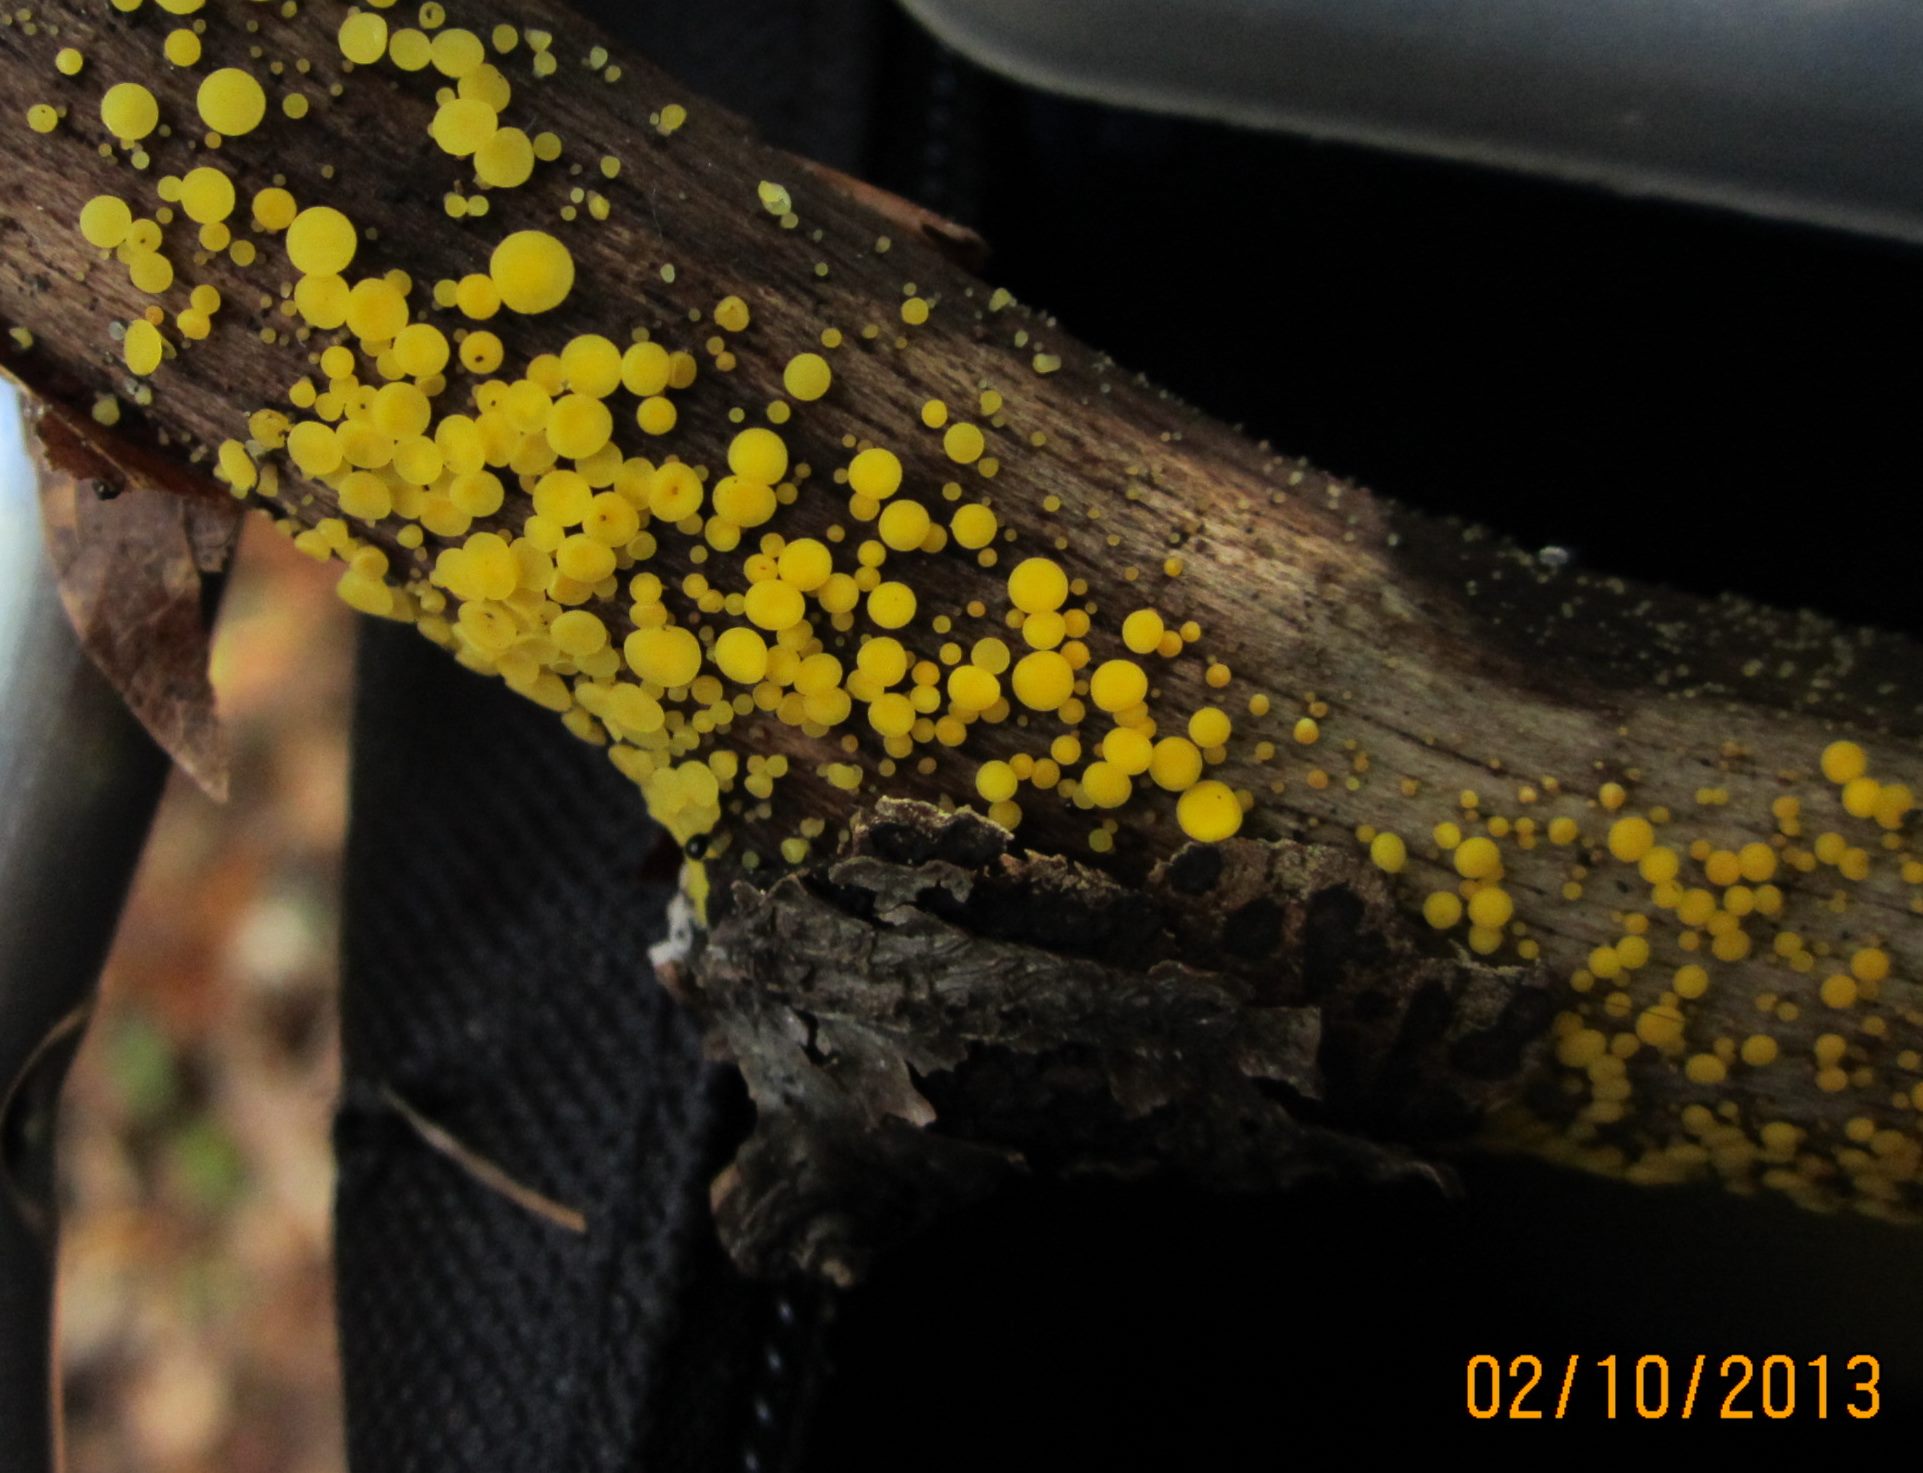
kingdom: Fungi
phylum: Ascomycota
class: Leotiomycetes
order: Helotiales
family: Pezizellaceae
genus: Calycina
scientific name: Calycina citrina
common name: almindelig gulskive
